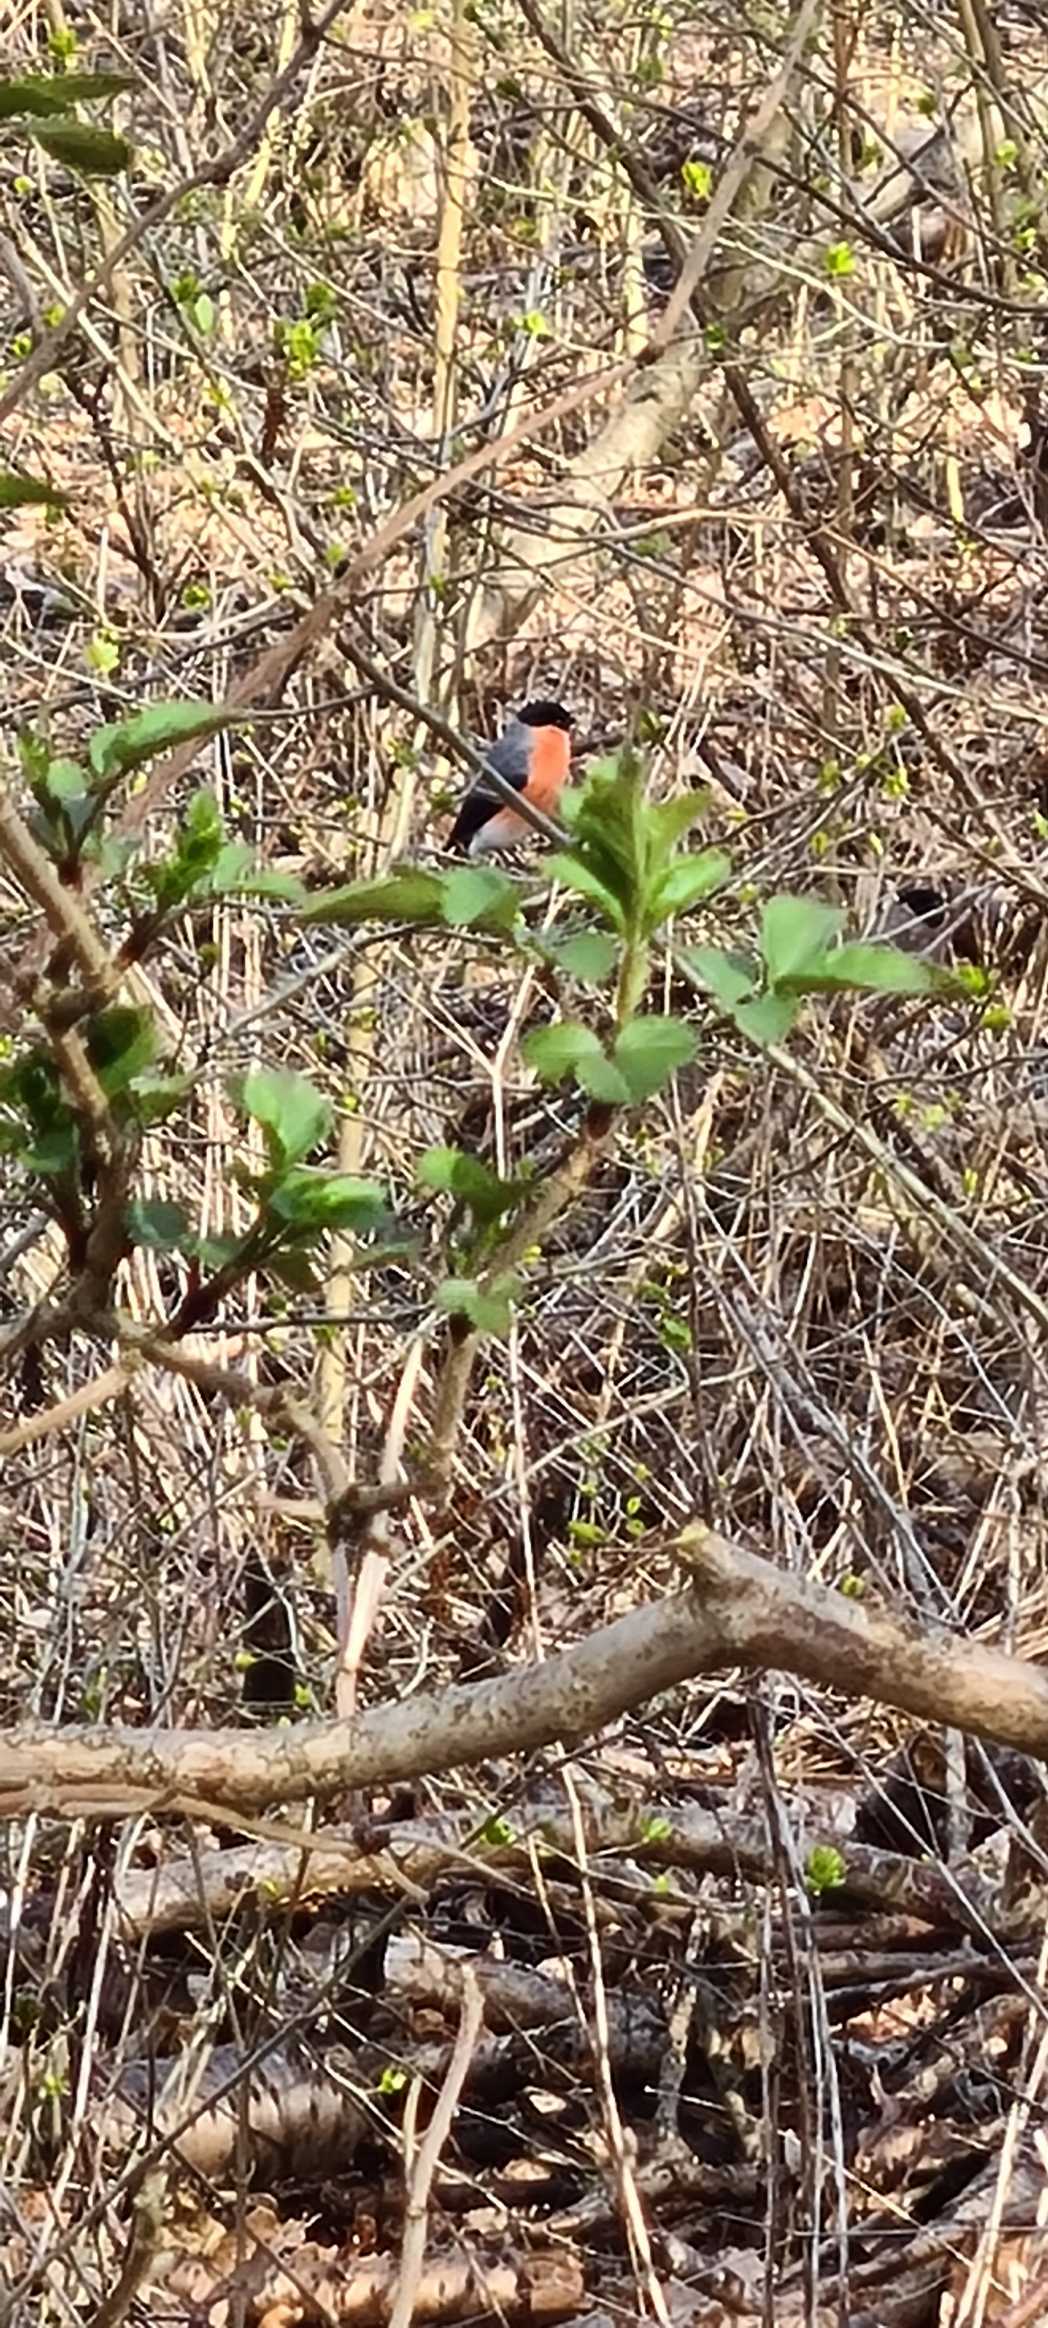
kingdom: Animalia
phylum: Chordata
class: Aves
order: Passeriformes
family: Fringillidae
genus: Pyrrhula
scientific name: Pyrrhula pyrrhula
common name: Dompap
